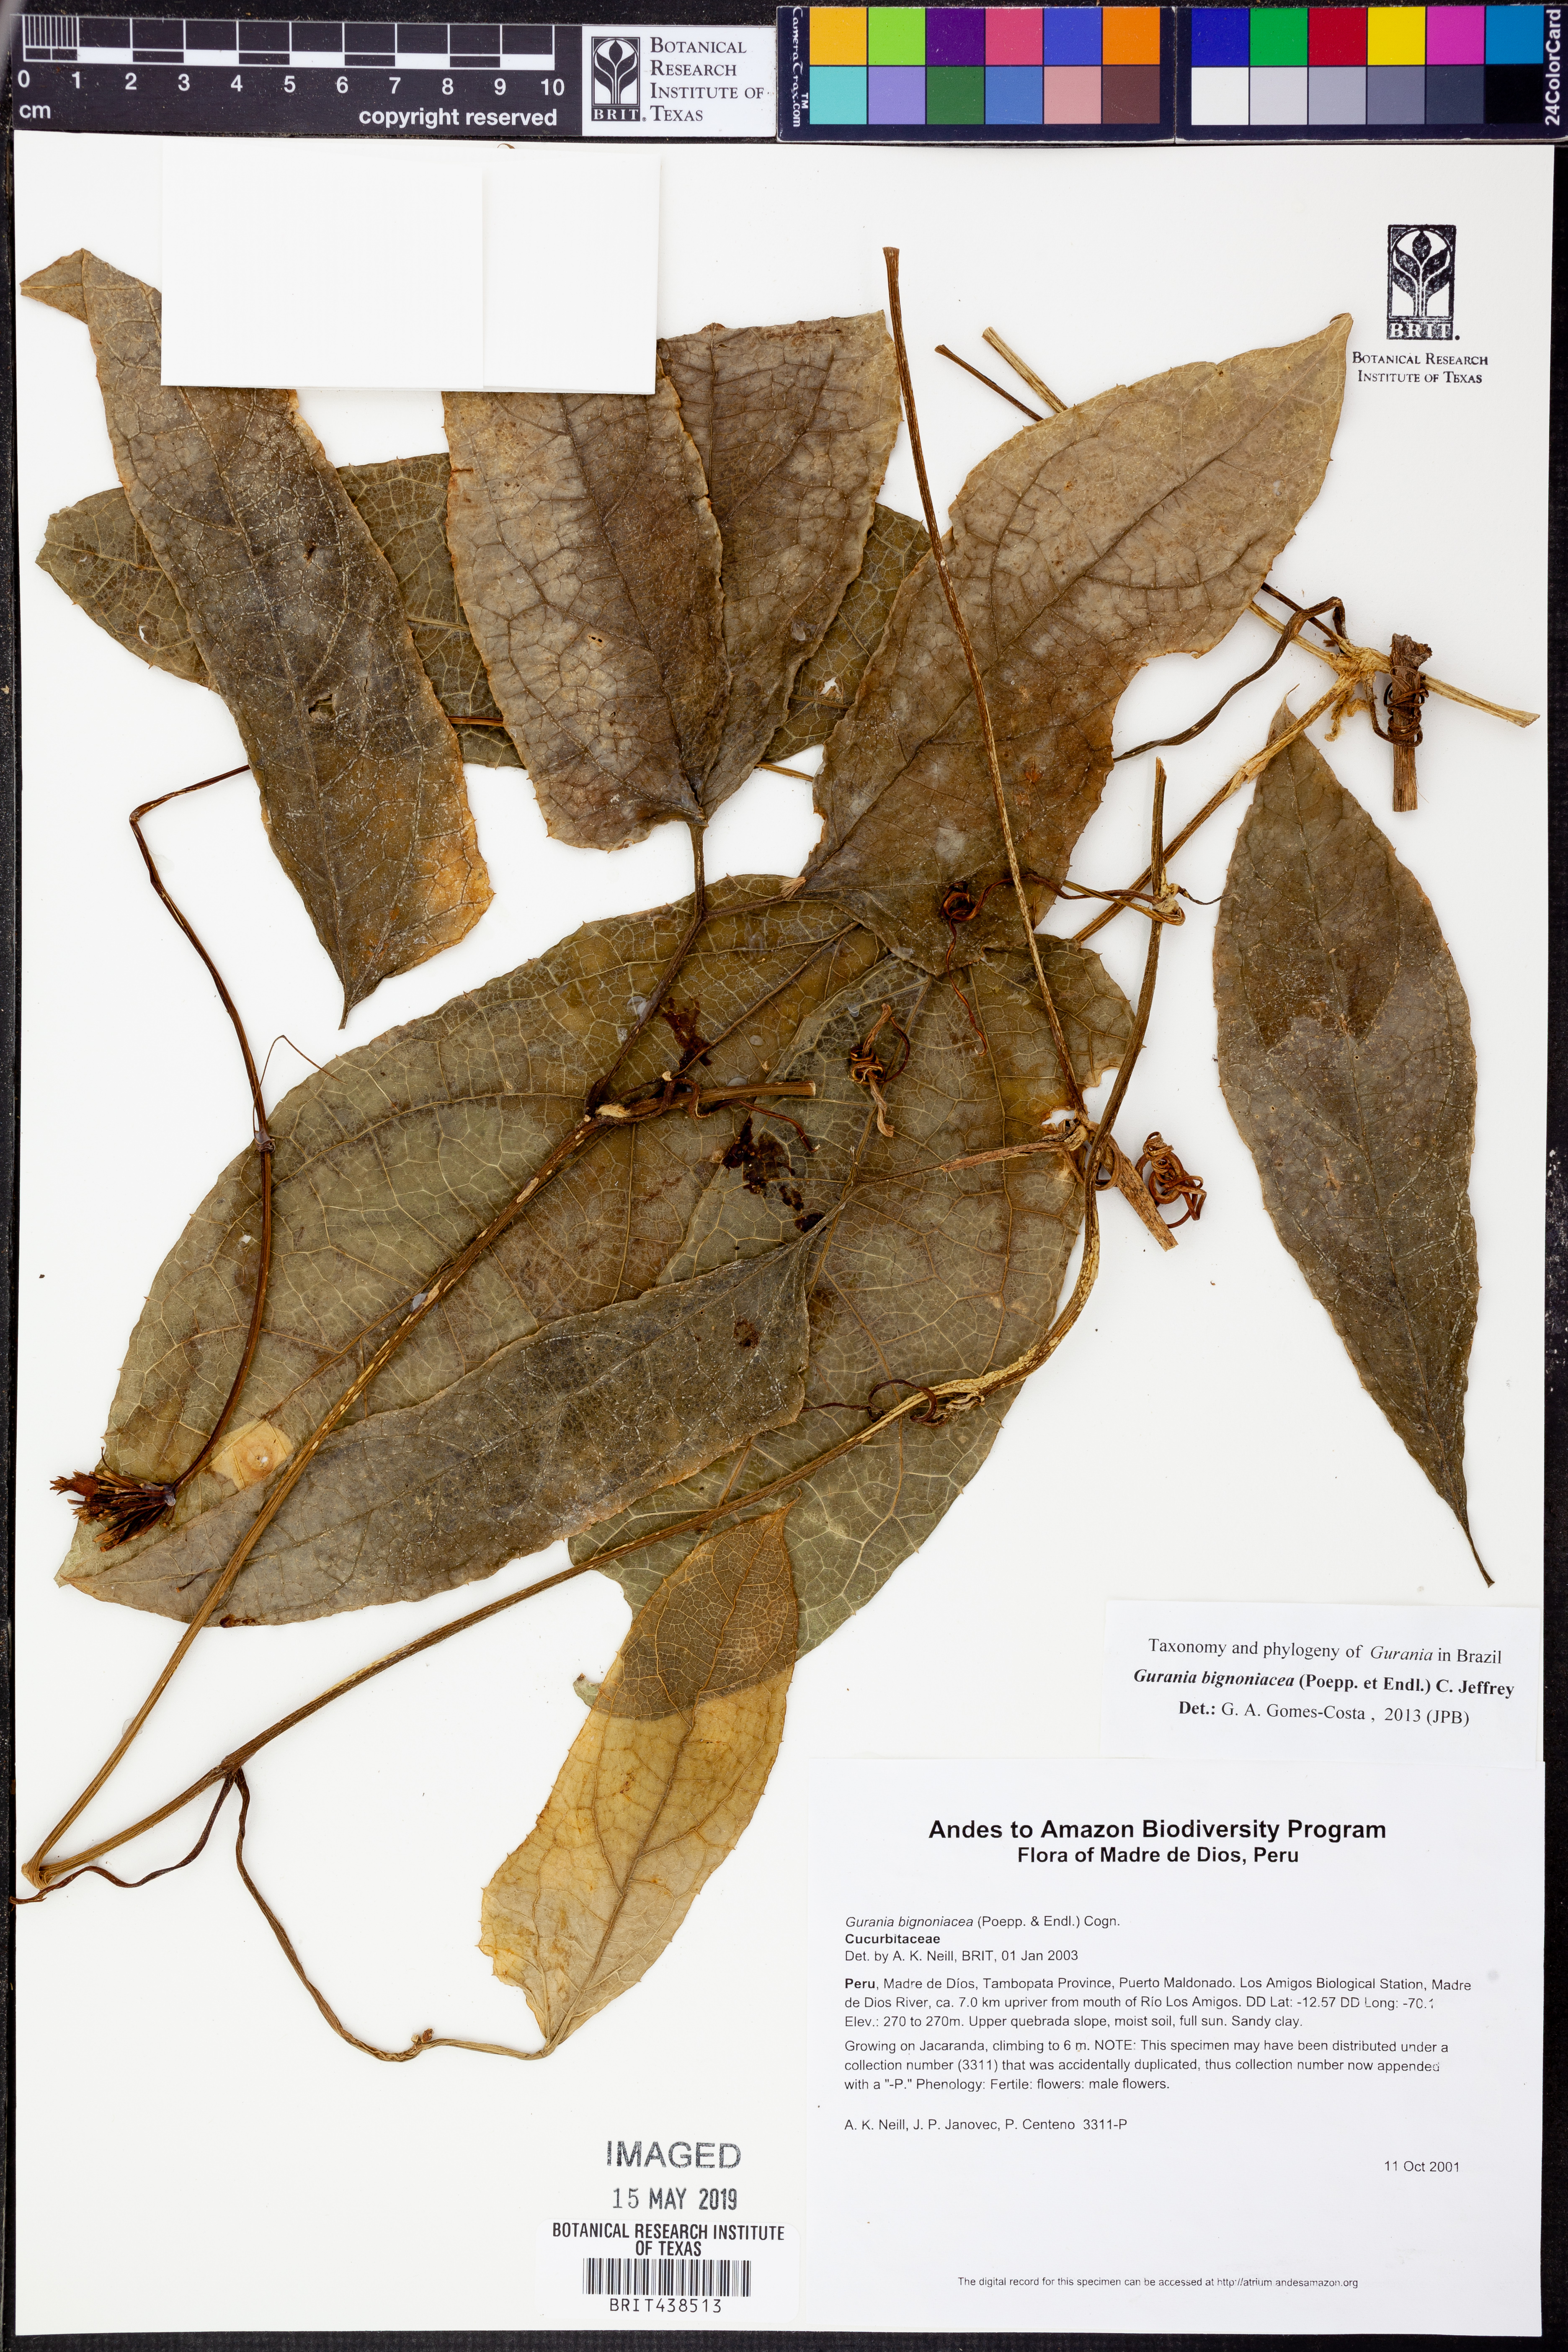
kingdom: Plantae
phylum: Tracheophyta
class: Magnoliopsida
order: Cucurbitales
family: Cucurbitaceae
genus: Gurania
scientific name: Gurania
